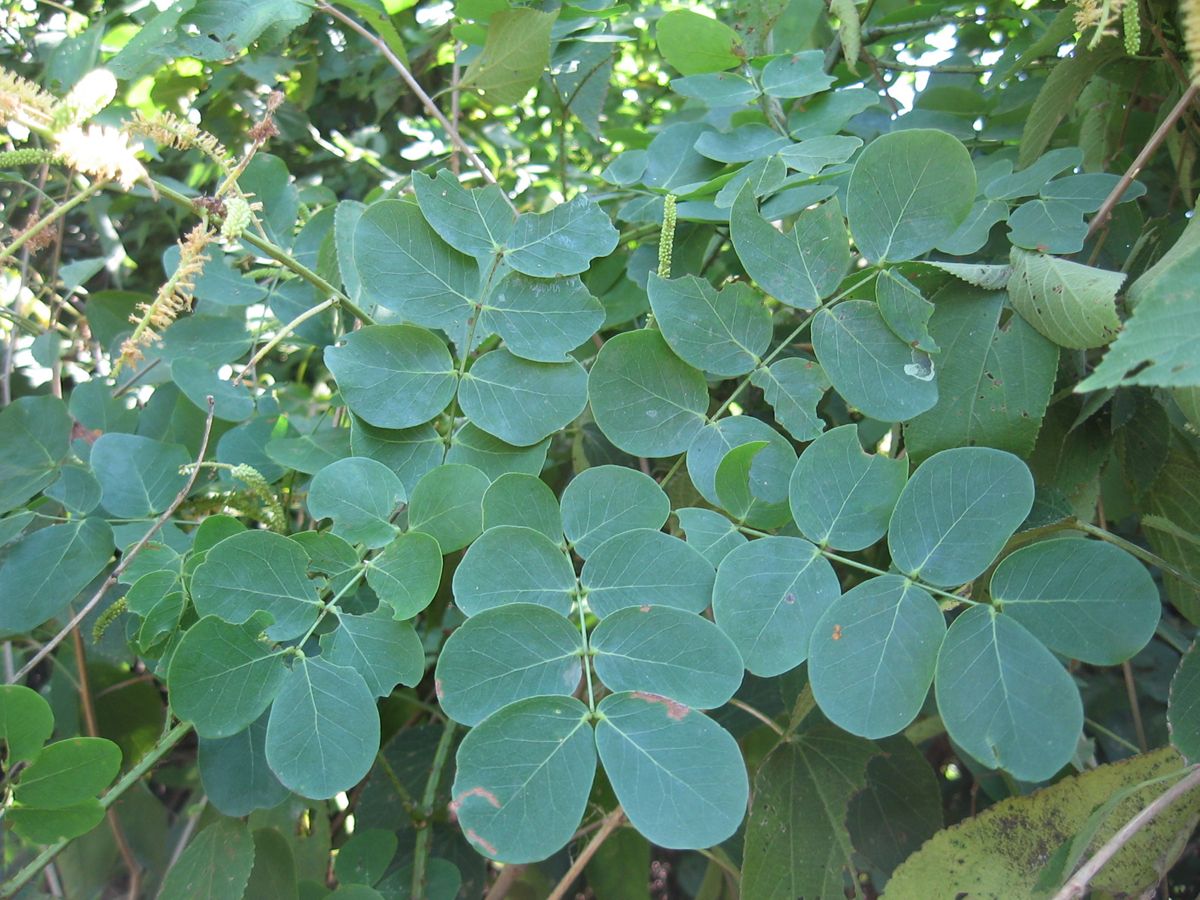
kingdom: Plantae
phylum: Tracheophyta
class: Magnoliopsida
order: Fabales
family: Fabaceae
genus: Adenopodia
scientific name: Adenopodia patens
